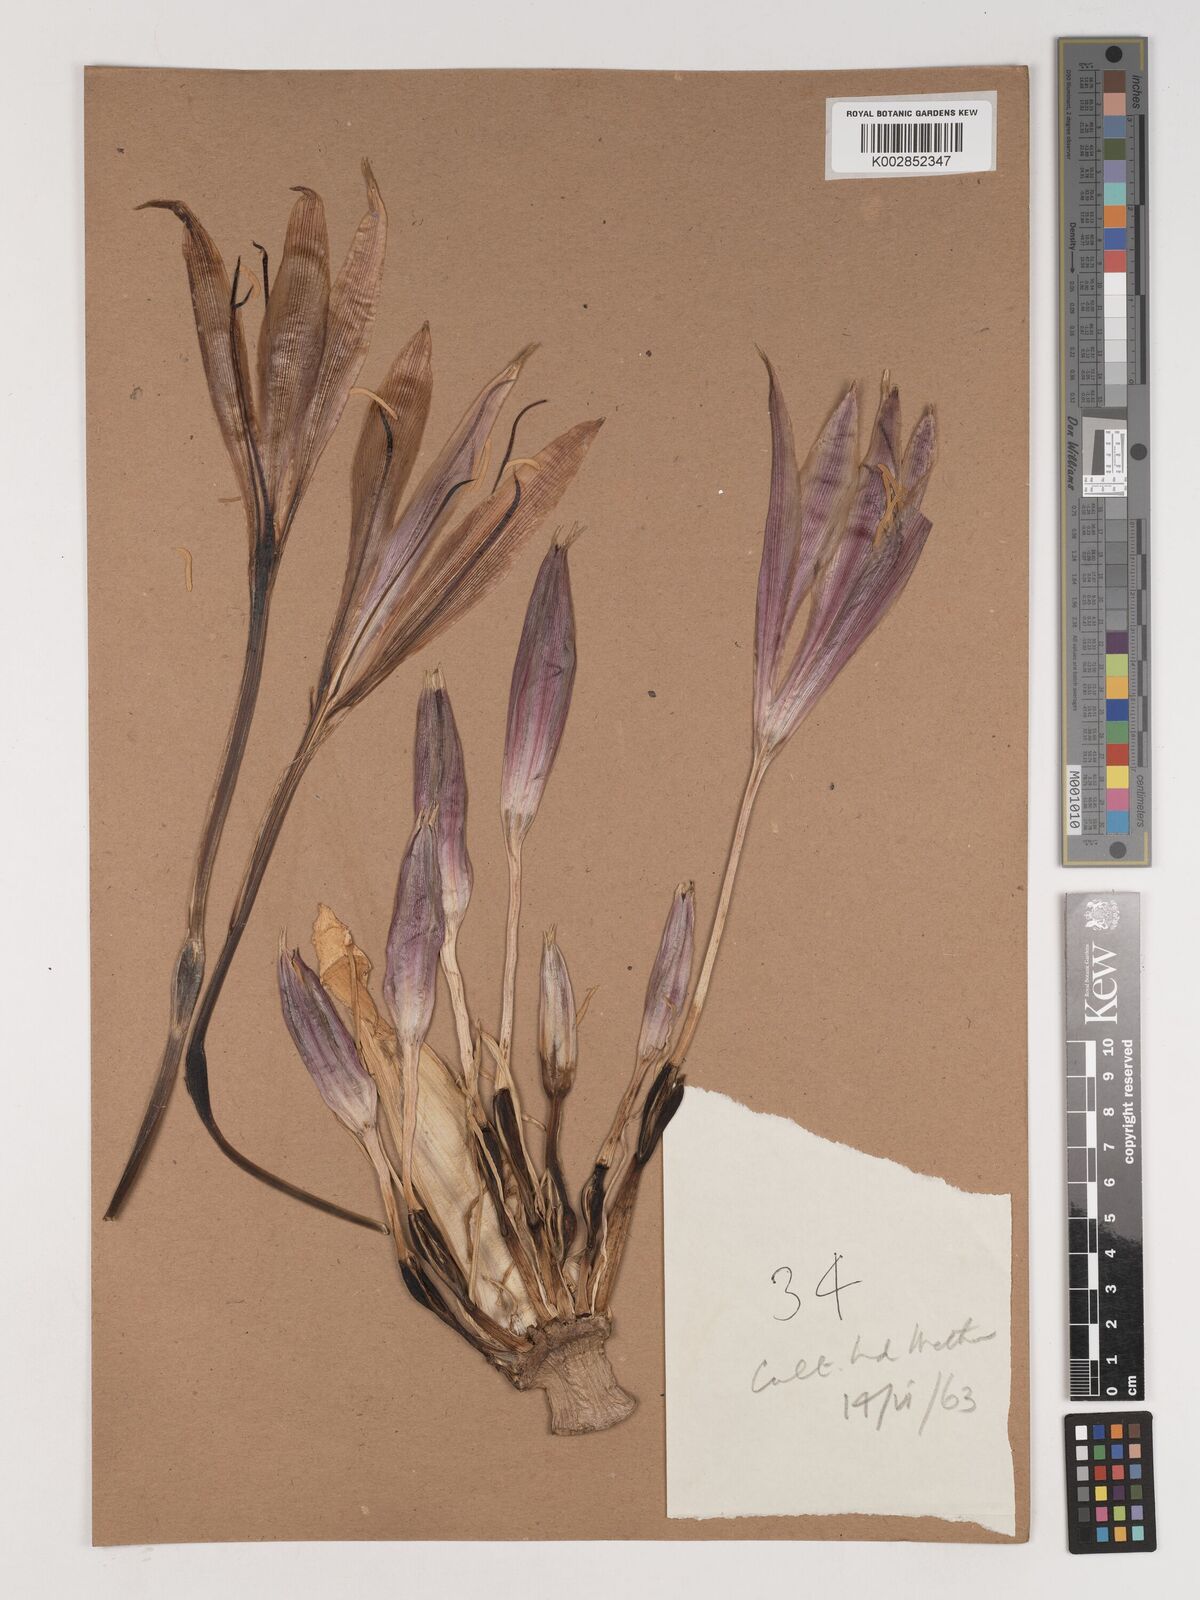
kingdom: Plantae
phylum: Tracheophyta
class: Liliopsida
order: Asparagales
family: Amaryllidaceae
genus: Crinum
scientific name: Crinum
